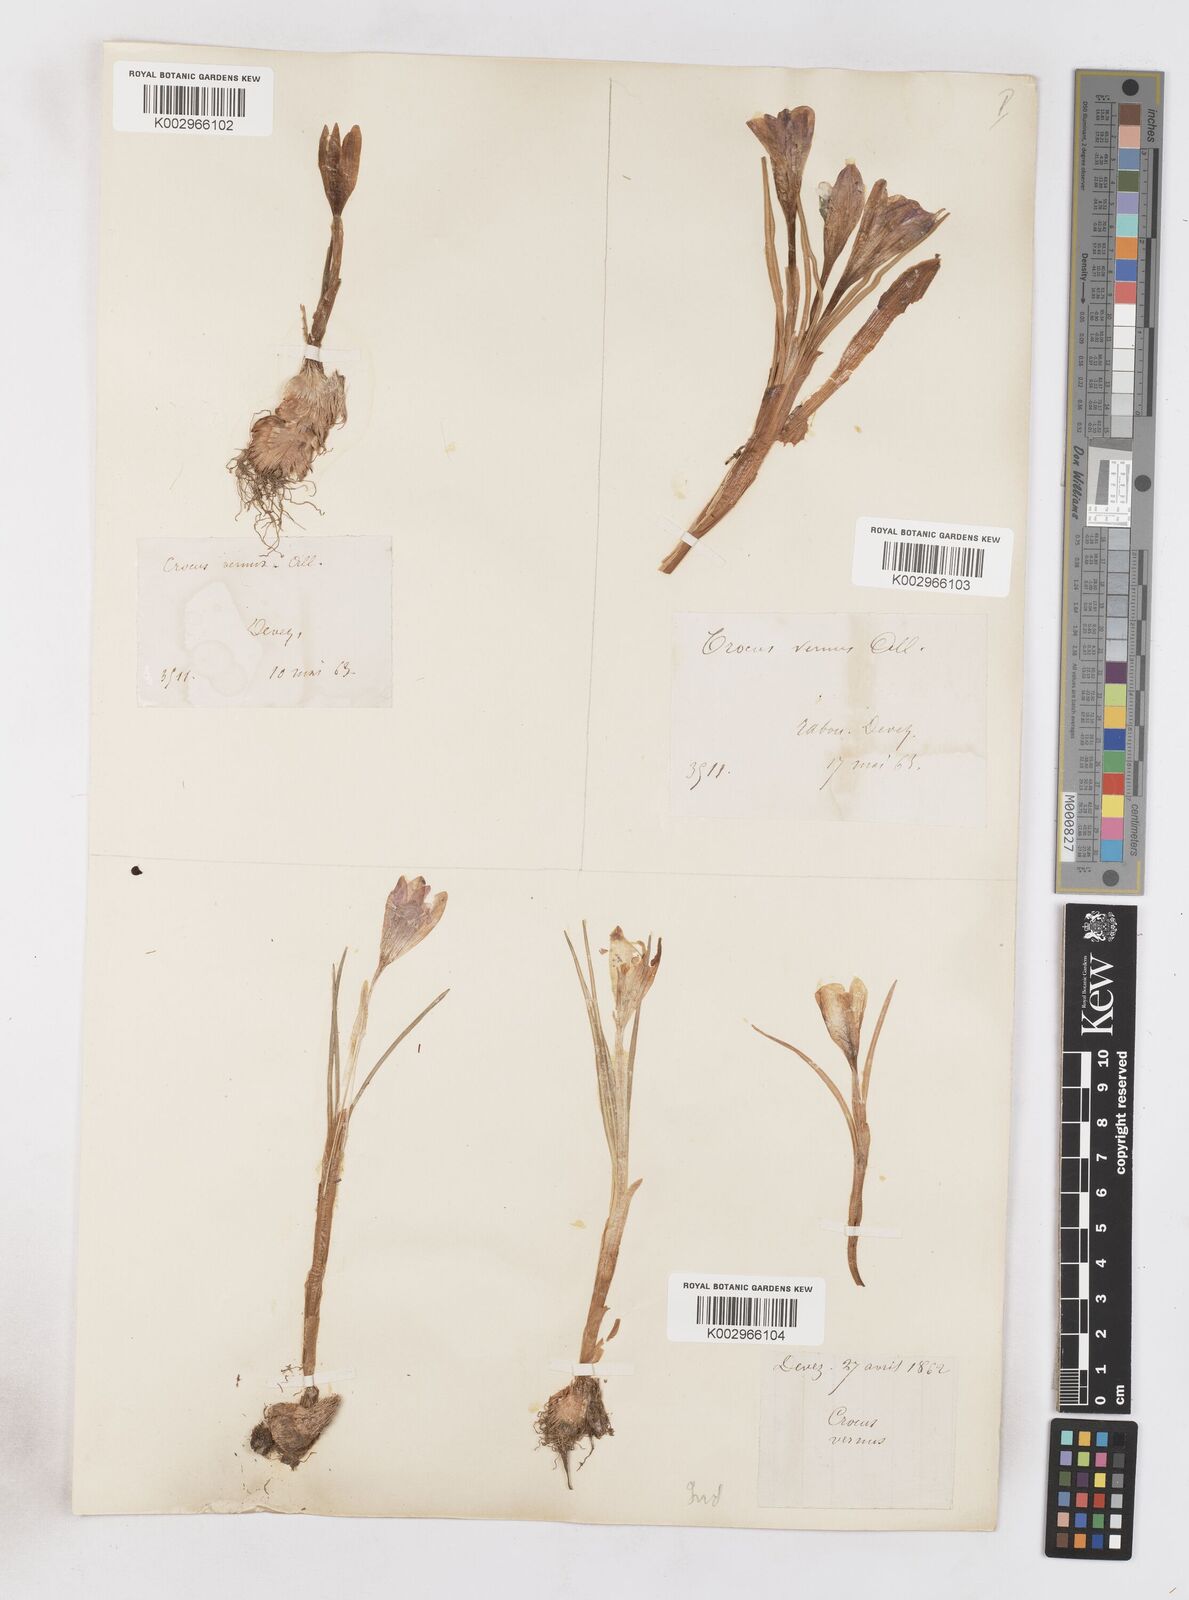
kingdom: Plantae
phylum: Tracheophyta
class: Liliopsida
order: Asparagales
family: Iridaceae
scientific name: Iridaceae
